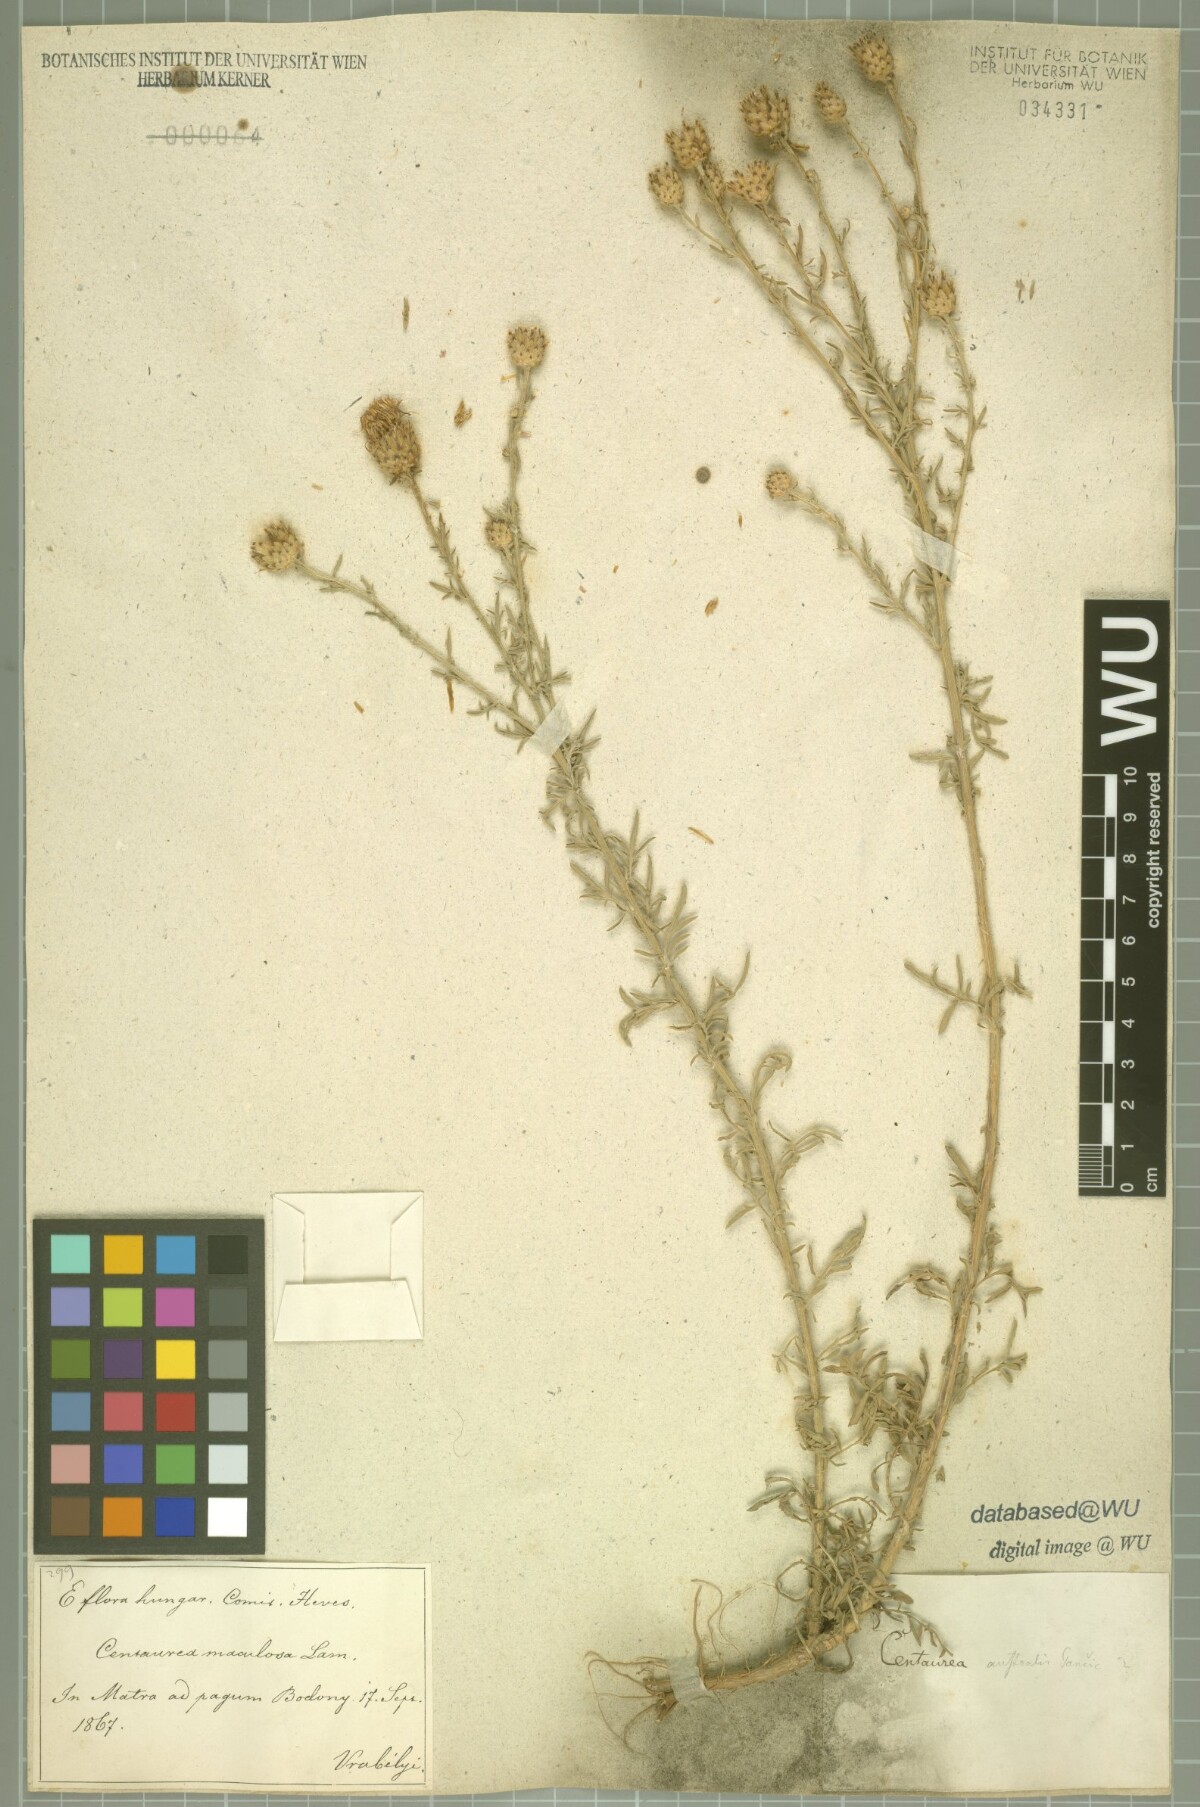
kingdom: Plantae
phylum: Tracheophyta
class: Magnoliopsida
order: Asterales
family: Asteraceae
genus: Centaurea
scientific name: Centaurea australis
